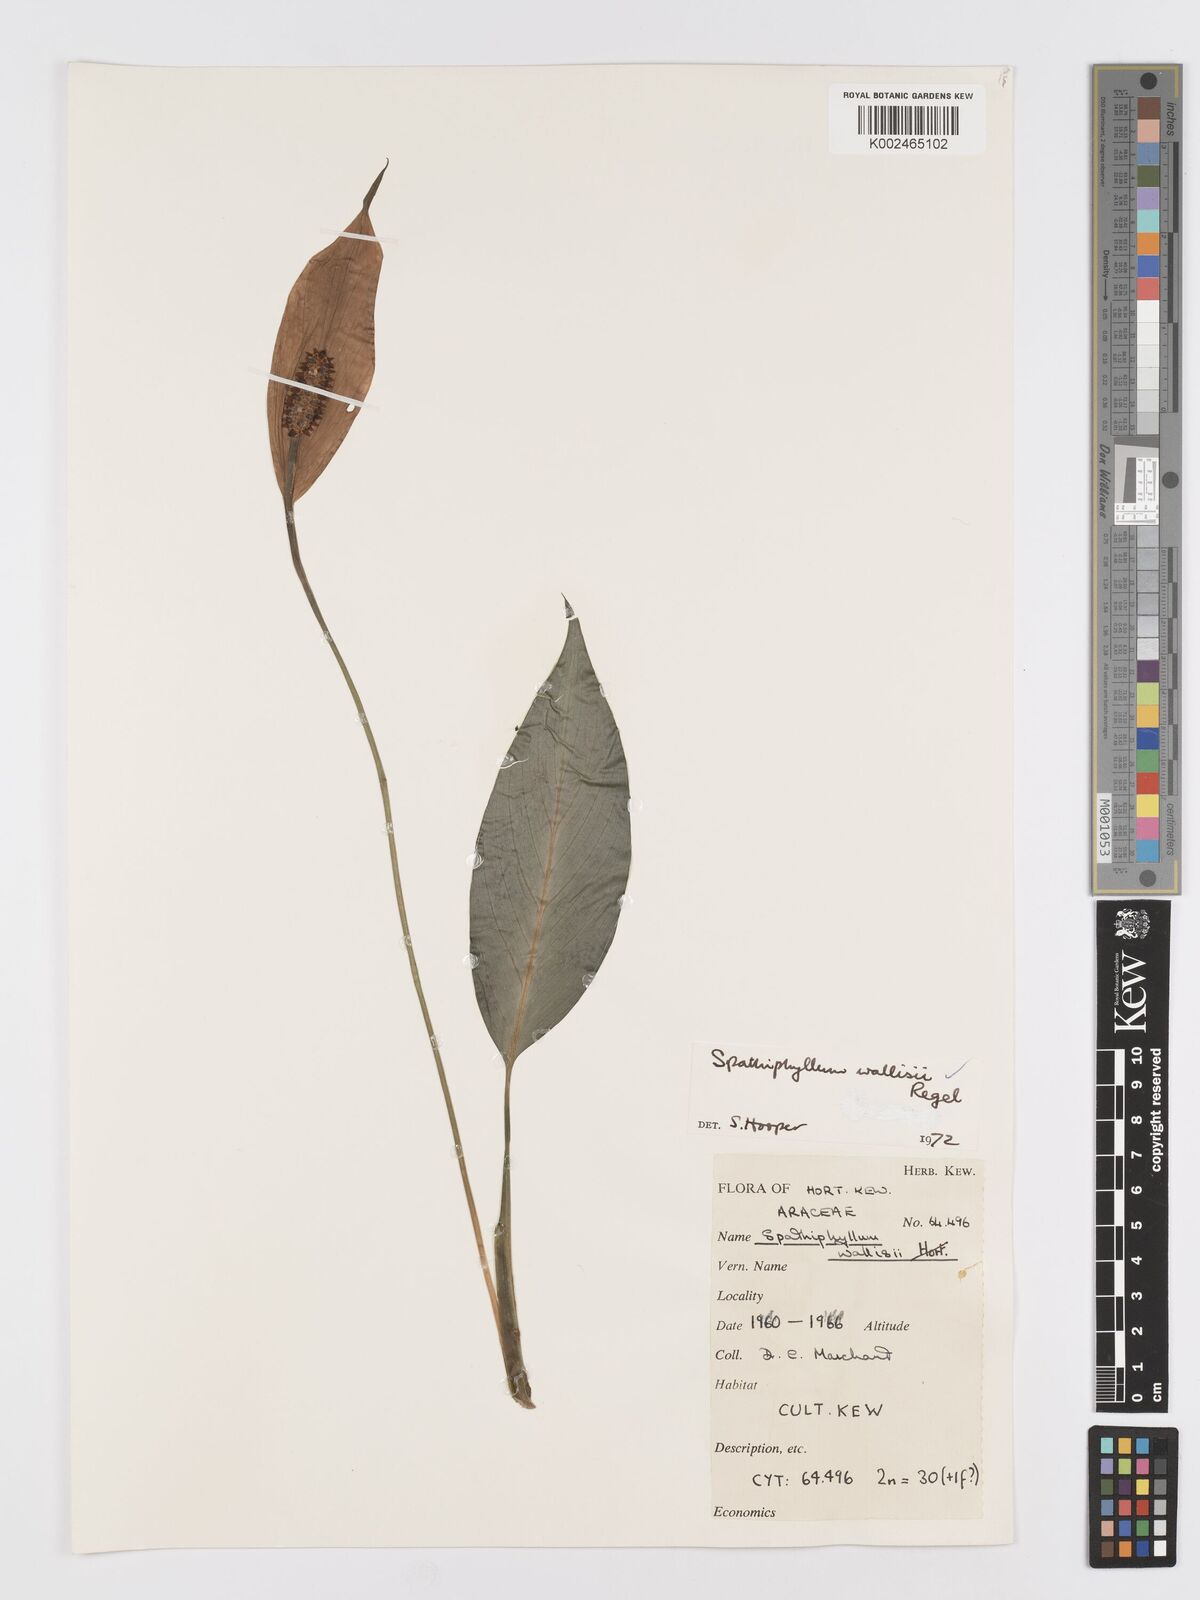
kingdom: Plantae
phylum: Tracheophyta
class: Liliopsida
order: Alismatales
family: Araceae
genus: Spathiphyllum
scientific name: Spathiphyllum ortgiesii
